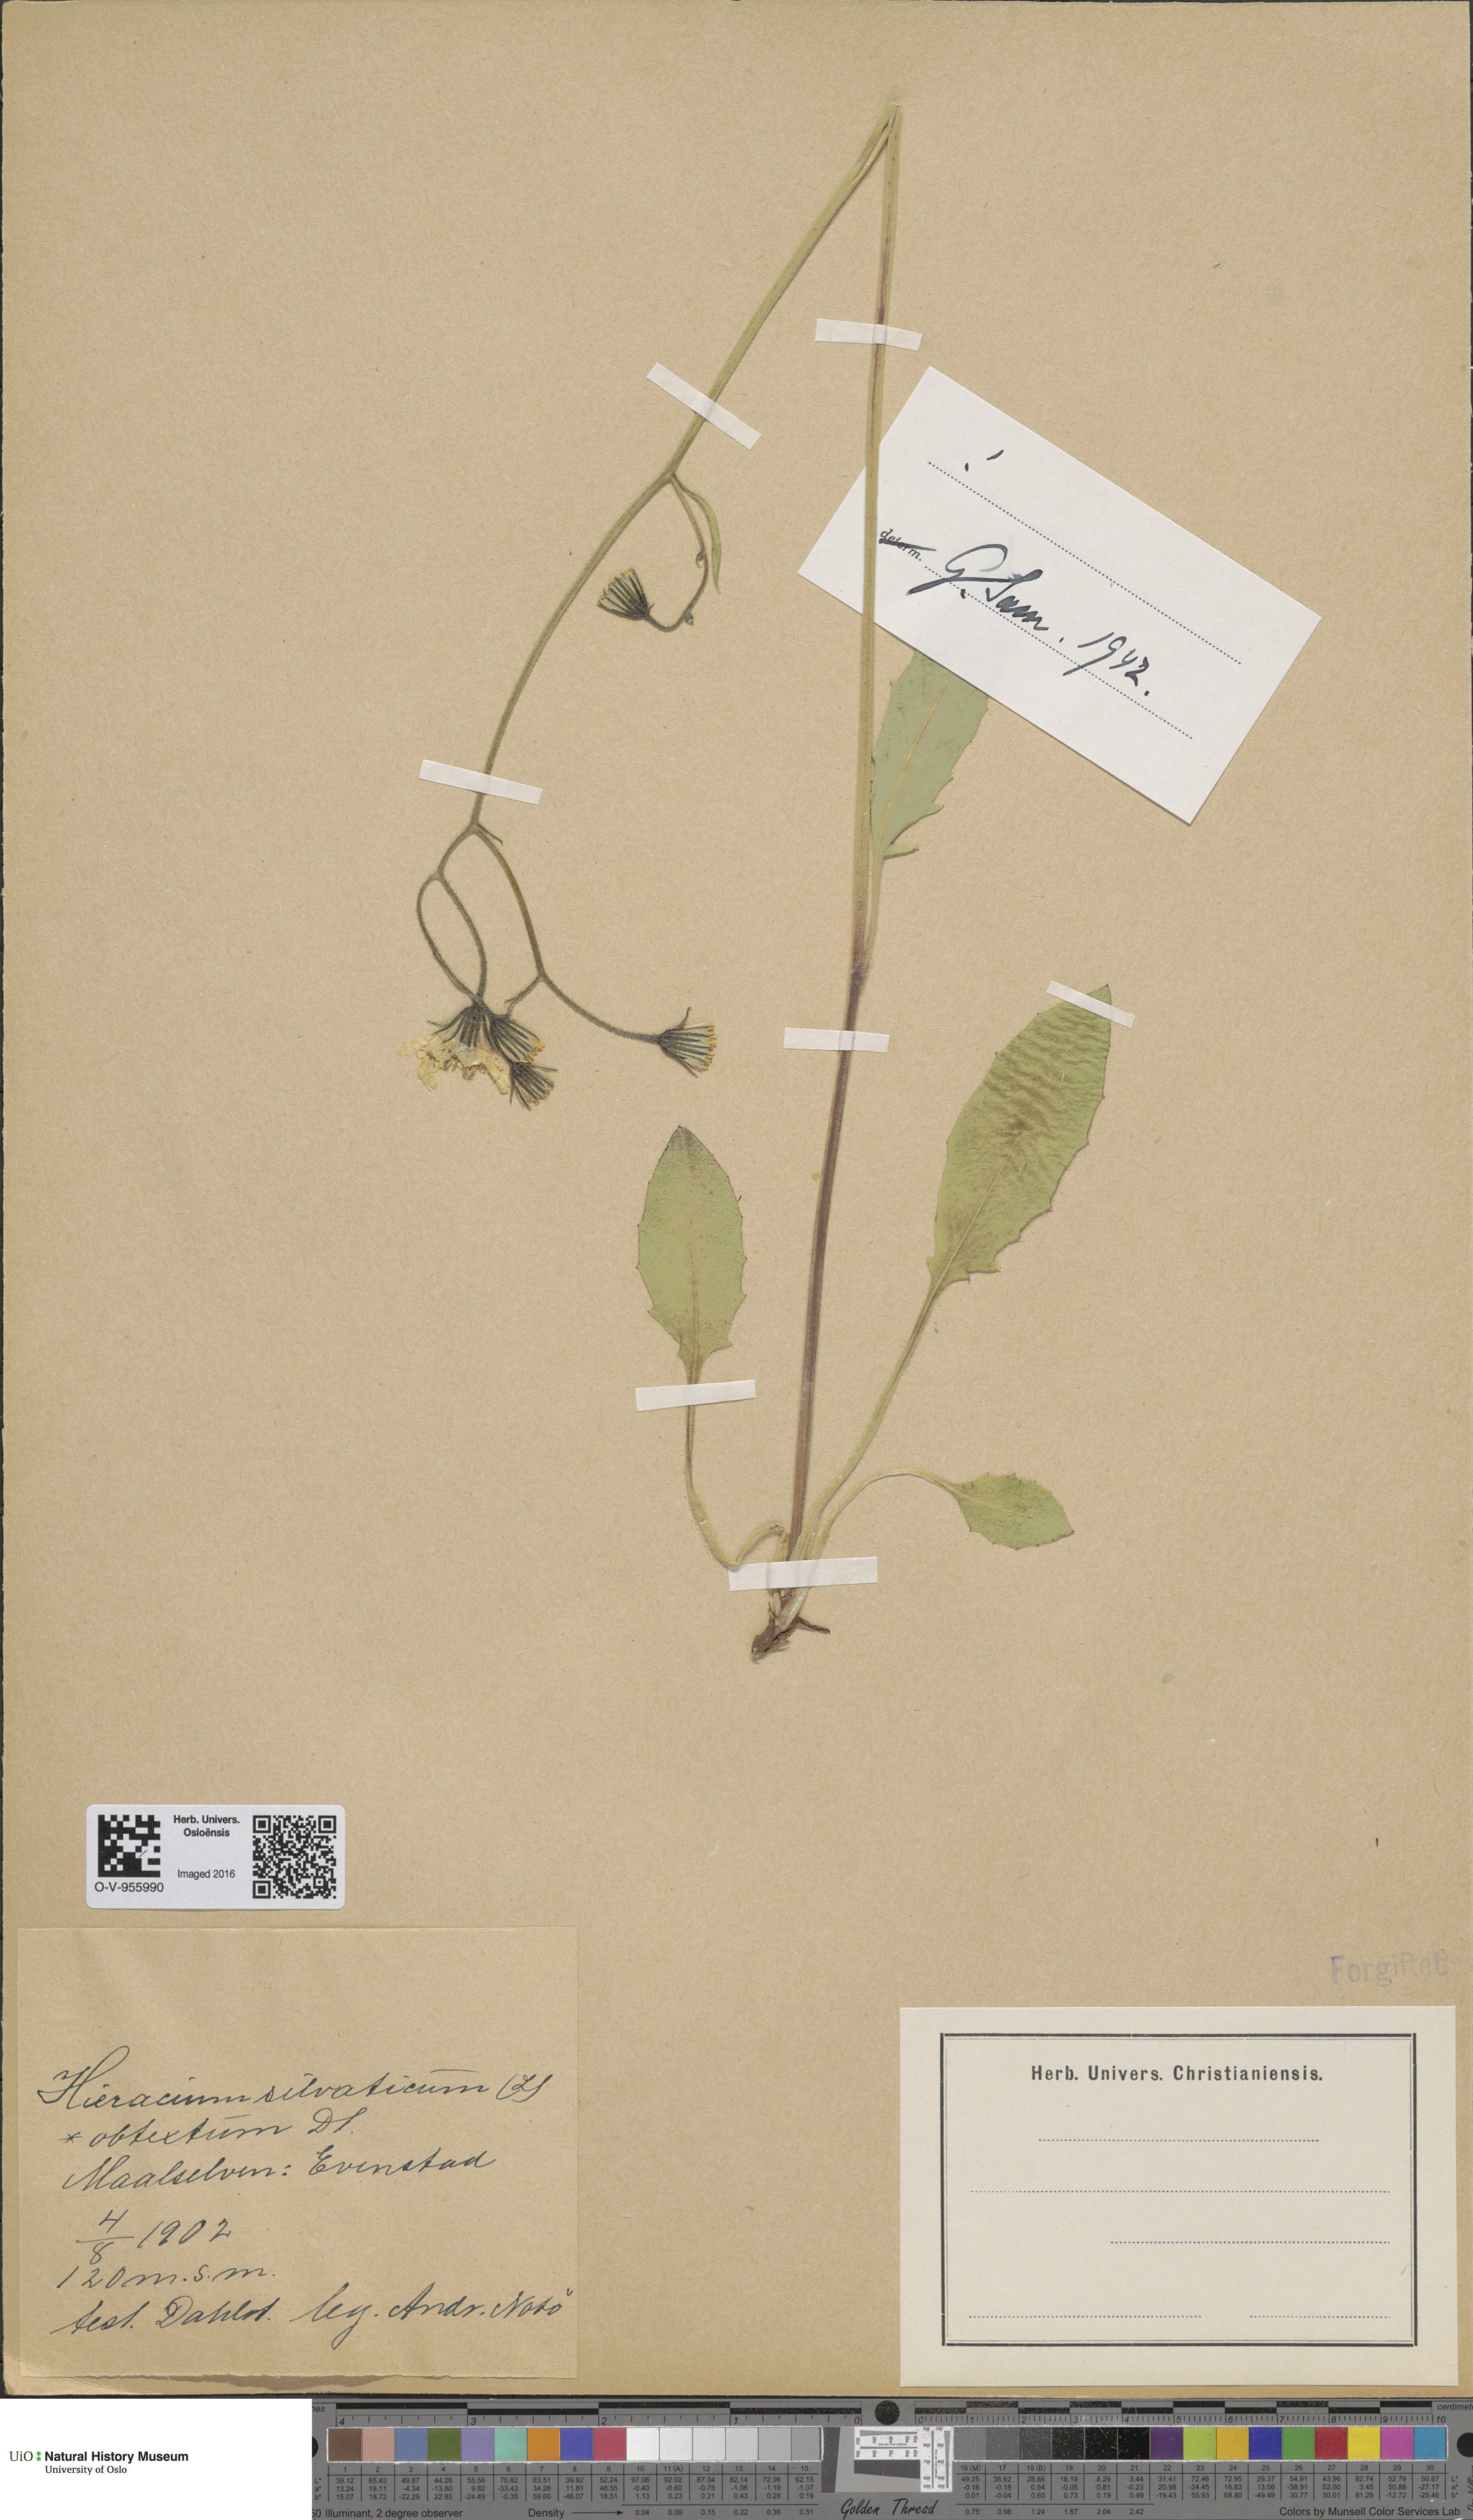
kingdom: Plantae
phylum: Tracheophyta
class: Magnoliopsida
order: Asterales
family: Asteraceae
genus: Hieracium
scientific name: Hieracium obtextum
